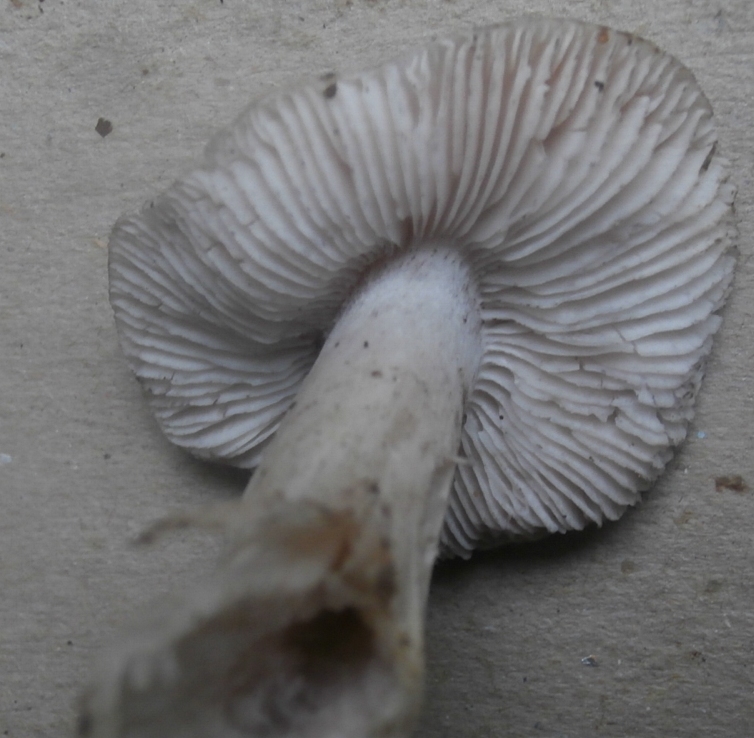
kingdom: Fungi
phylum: Basidiomycota
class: Agaricomycetes
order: Agaricales
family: Tricholomataceae
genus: Tricholoma
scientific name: Tricholoma terreum
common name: jordfarvet ridderhat
